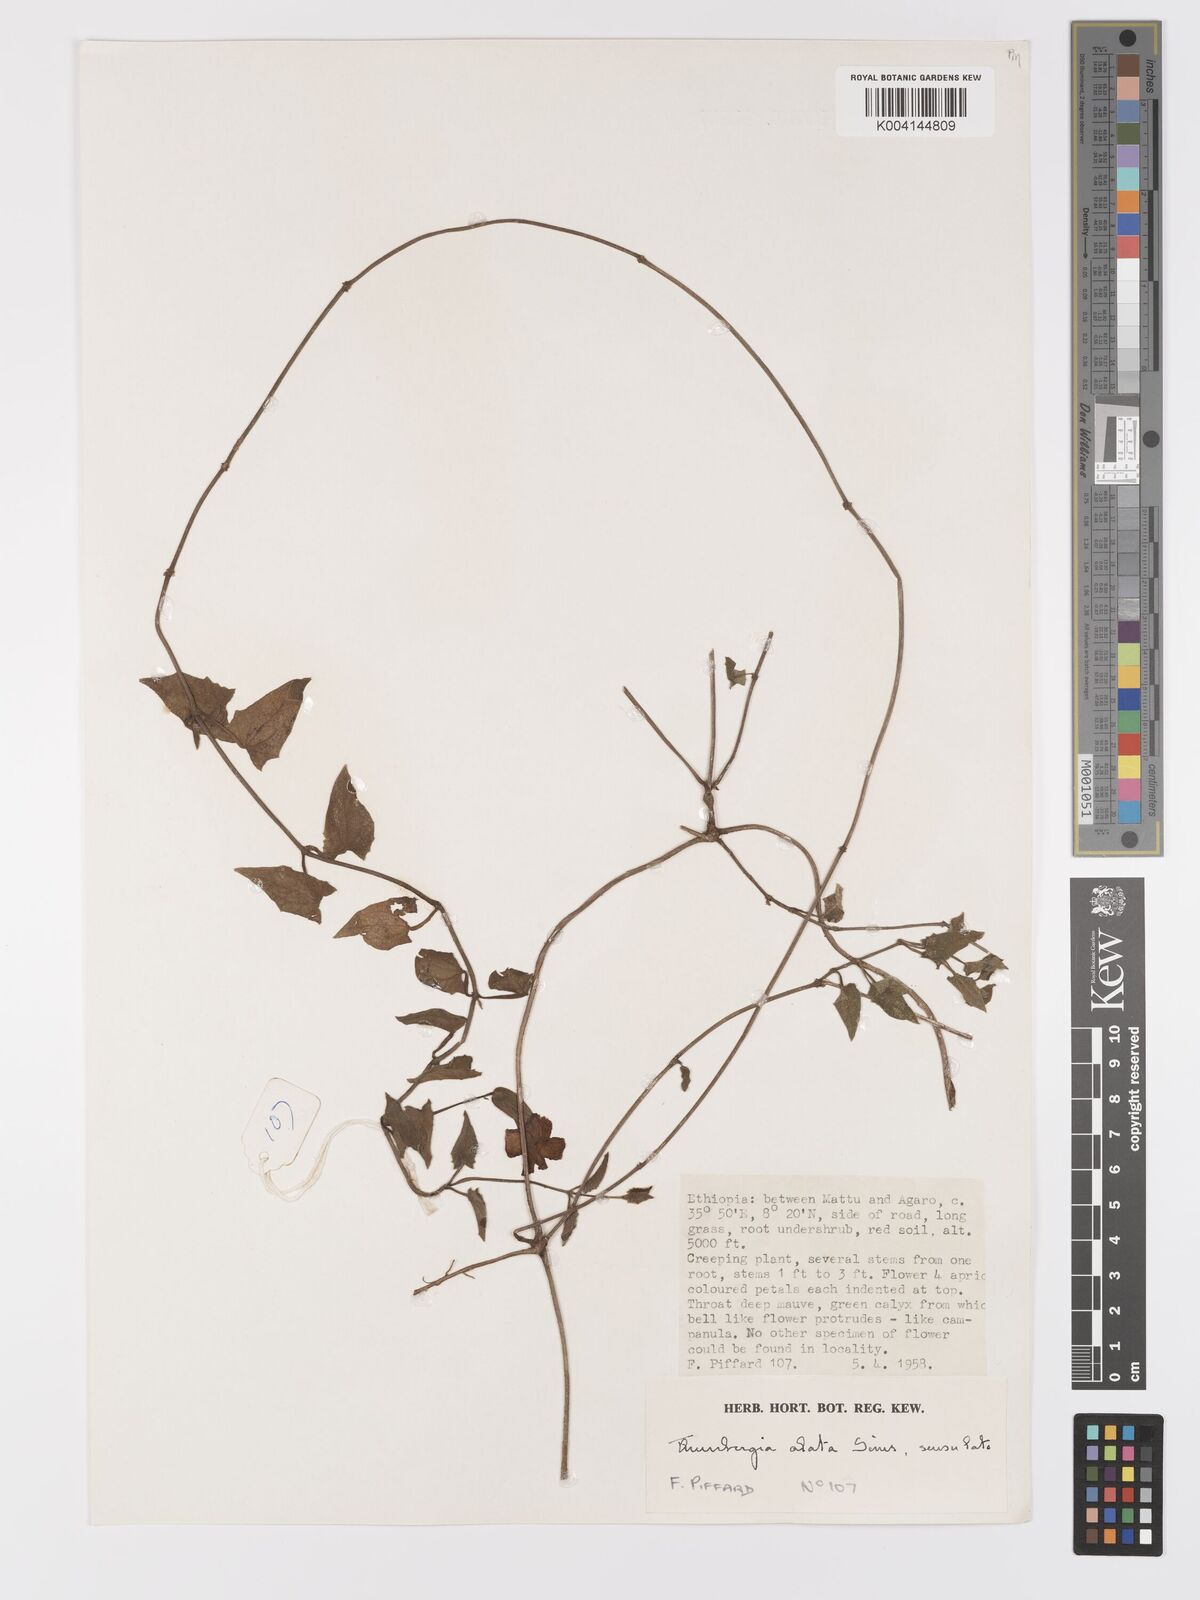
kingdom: Plantae
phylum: Tracheophyta
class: Magnoliopsida
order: Lamiales
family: Acanthaceae
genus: Thunbergia
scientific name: Thunbergia alata
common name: Blackeyed susan vine
